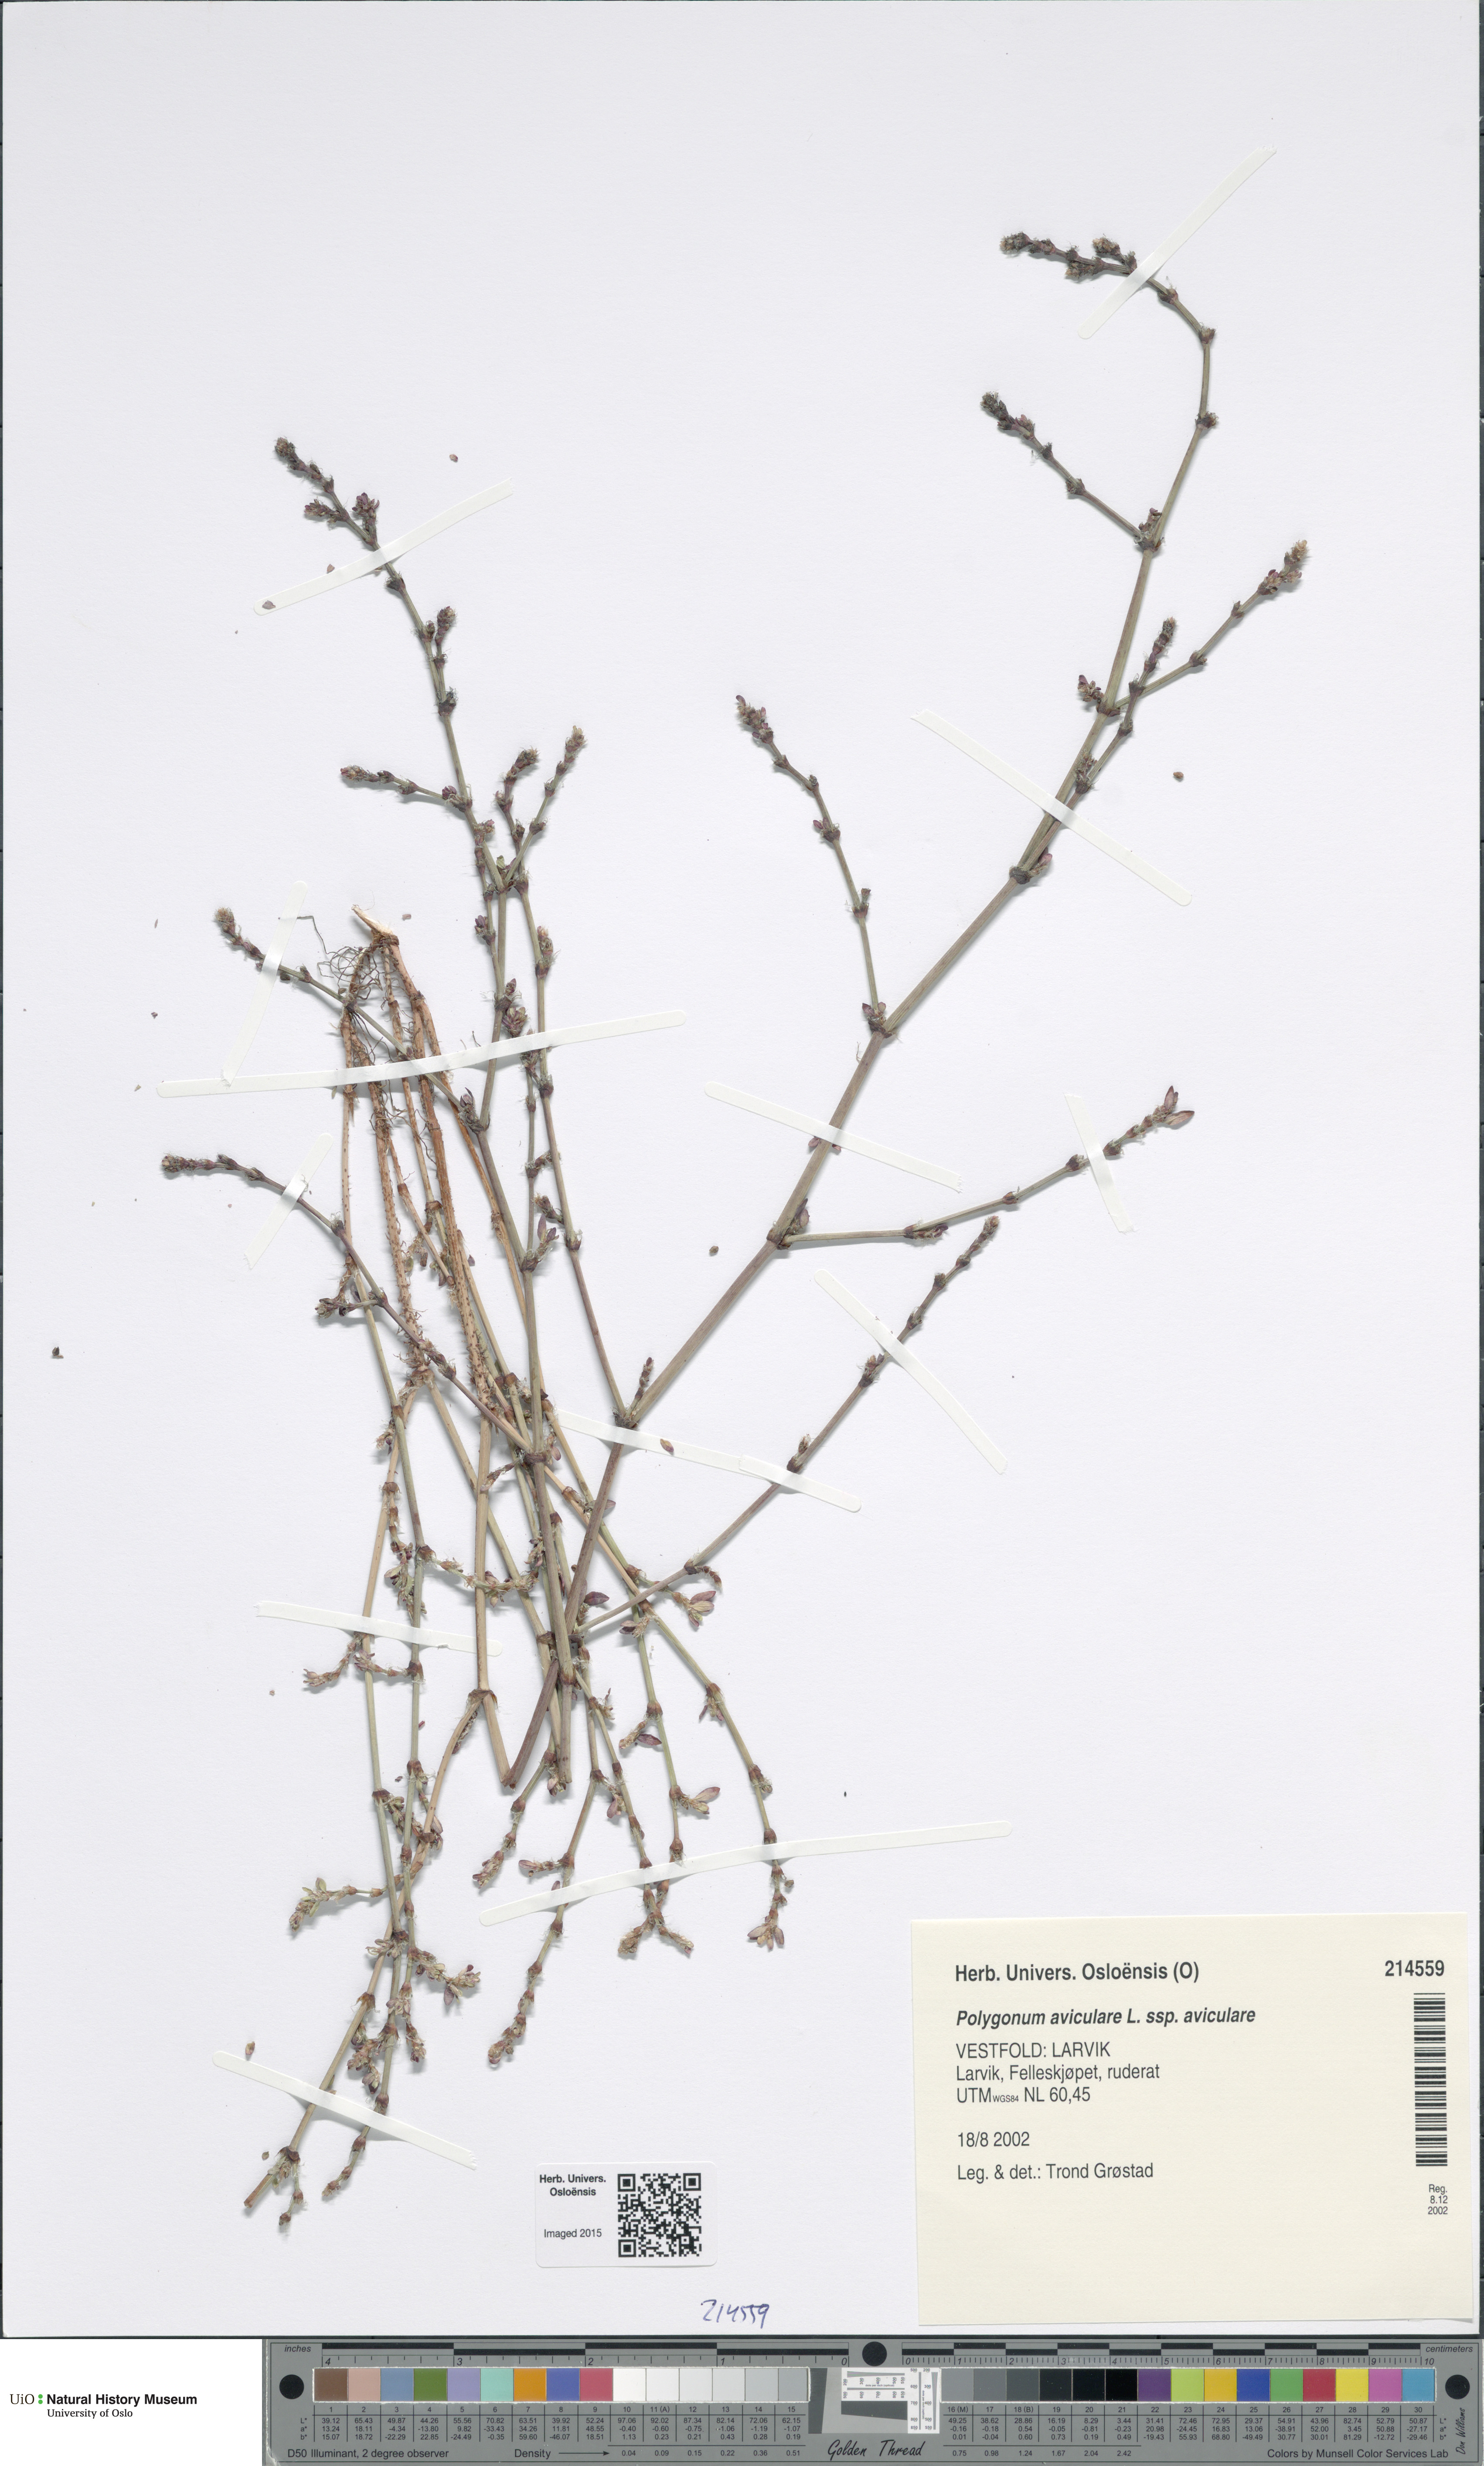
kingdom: Plantae
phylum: Tracheophyta
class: Magnoliopsida
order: Caryophyllales
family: Polygonaceae
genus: Polygonum
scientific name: Polygonum aviculare
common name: Prostrate knotweed
